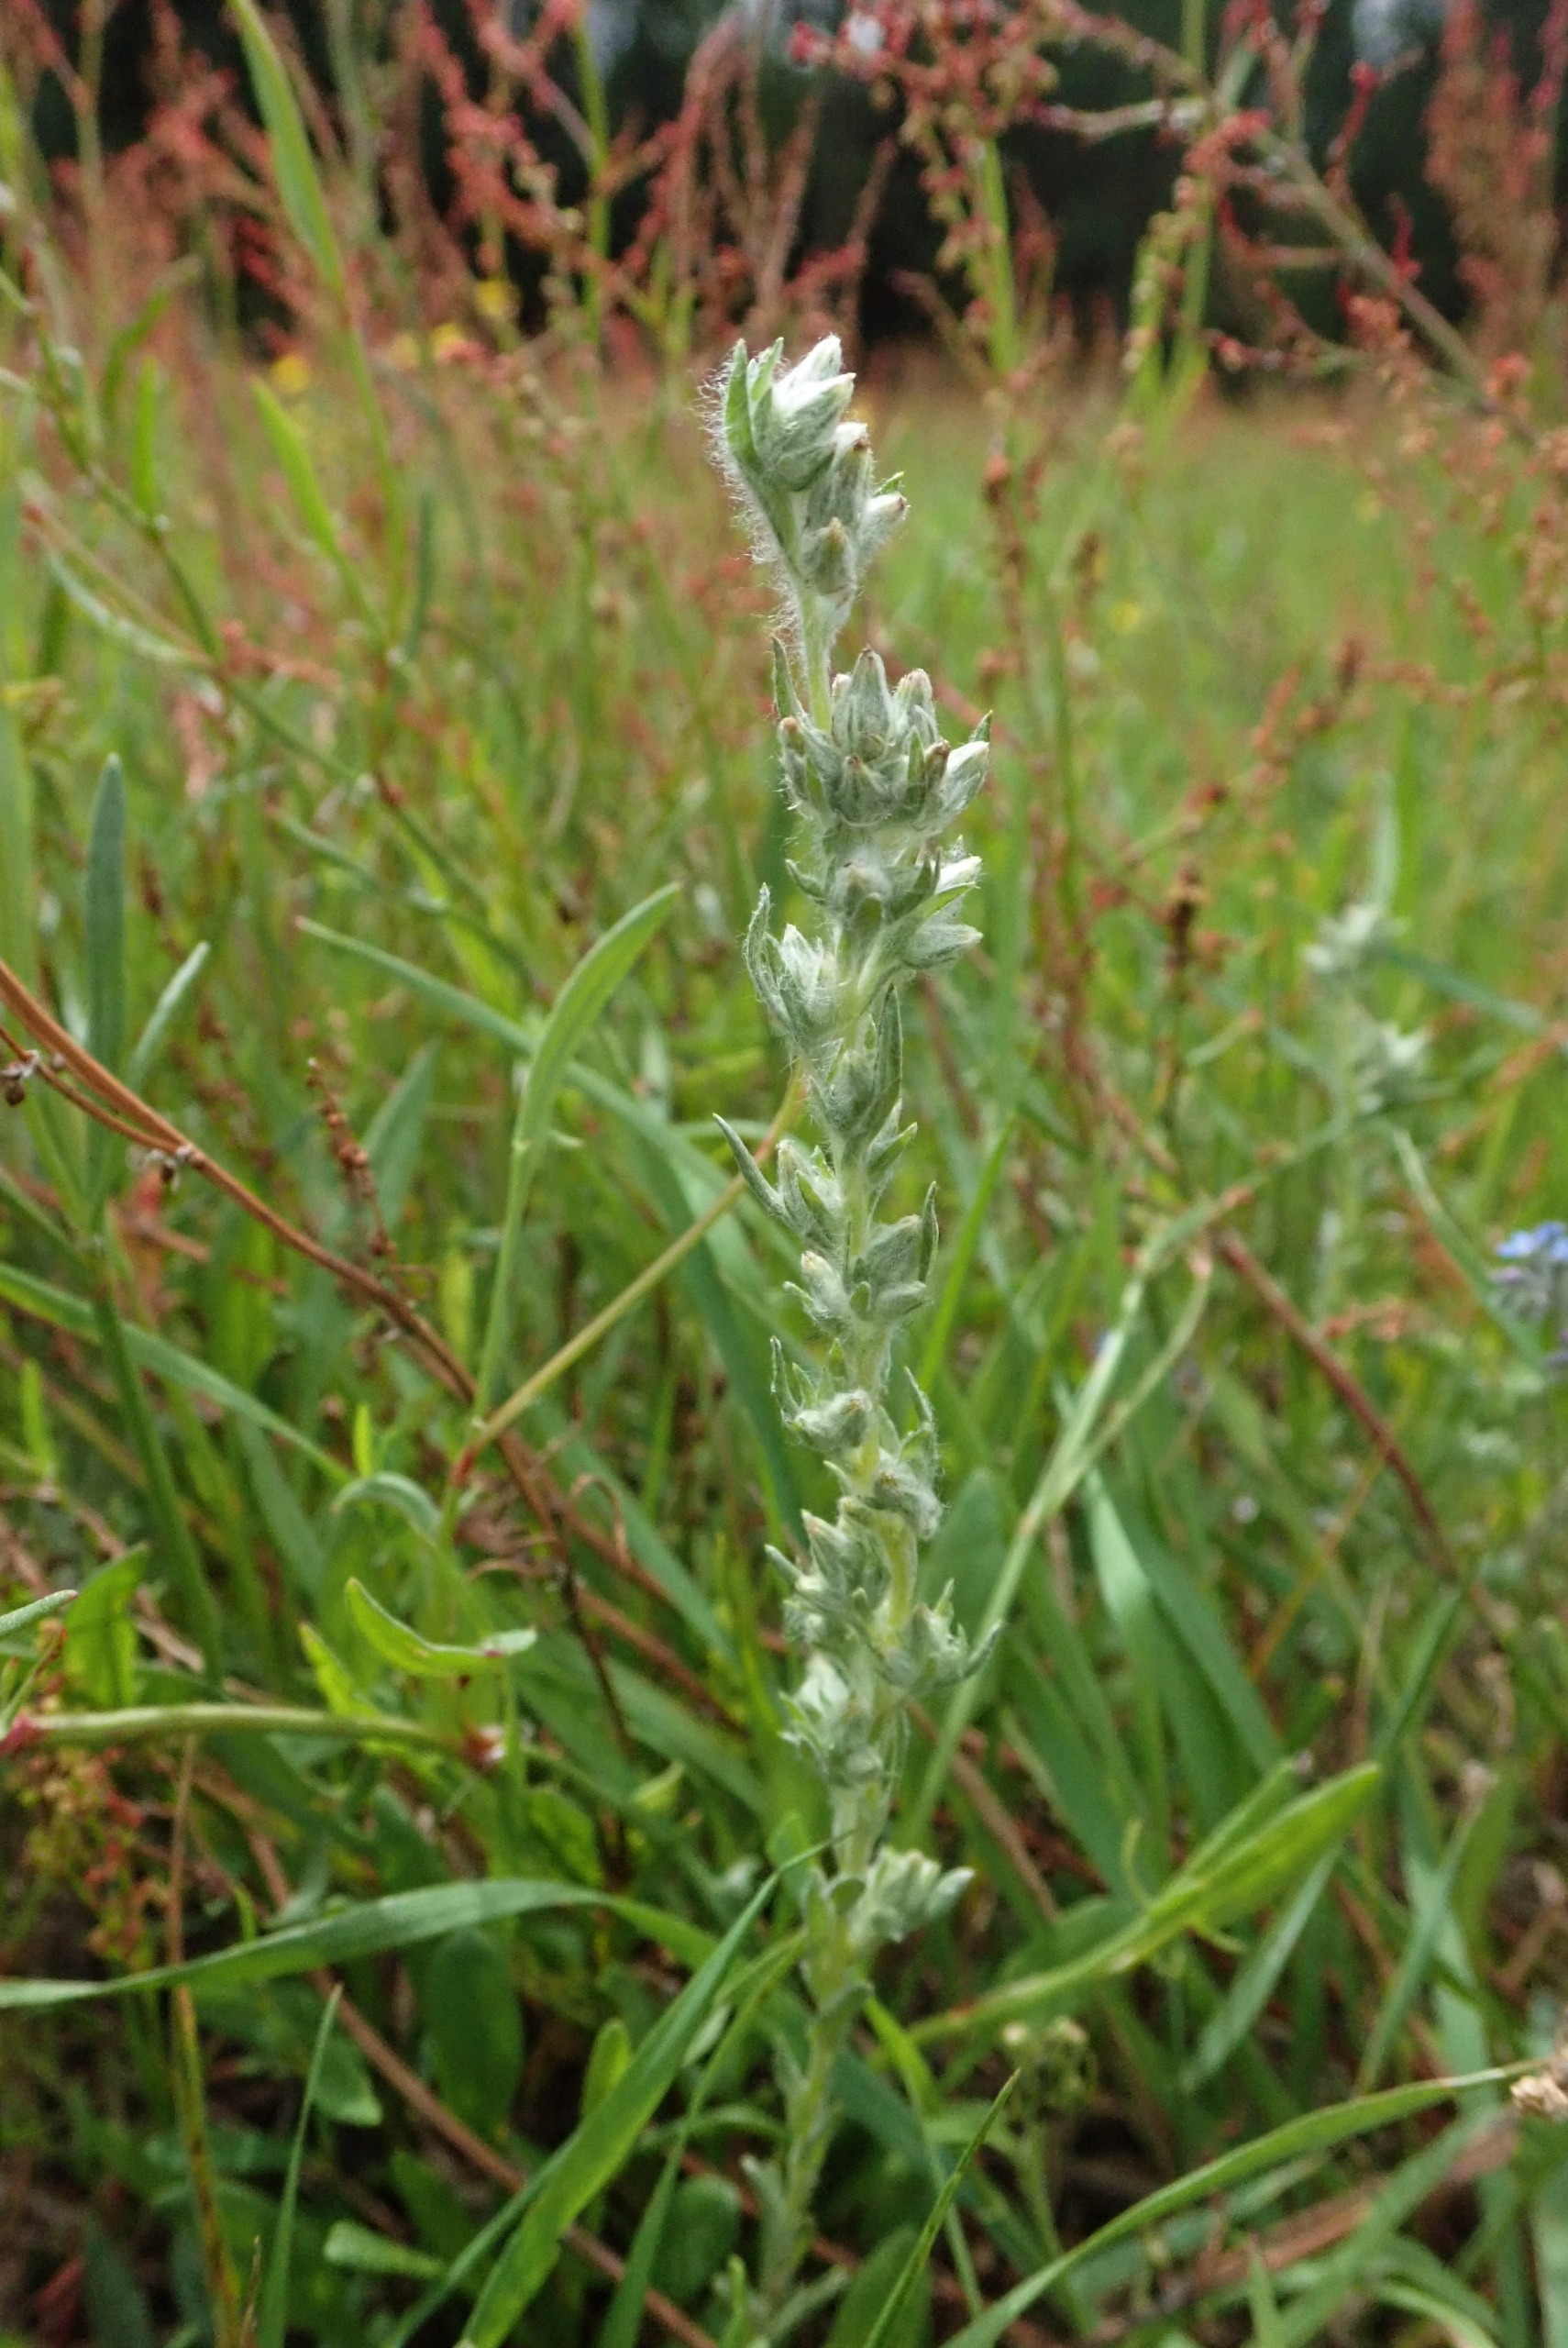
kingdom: Plantae
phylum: Tracheophyta
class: Magnoliopsida
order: Asterales
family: Asteraceae
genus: Filago
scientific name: Filago arvensis
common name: Ager-museurt
